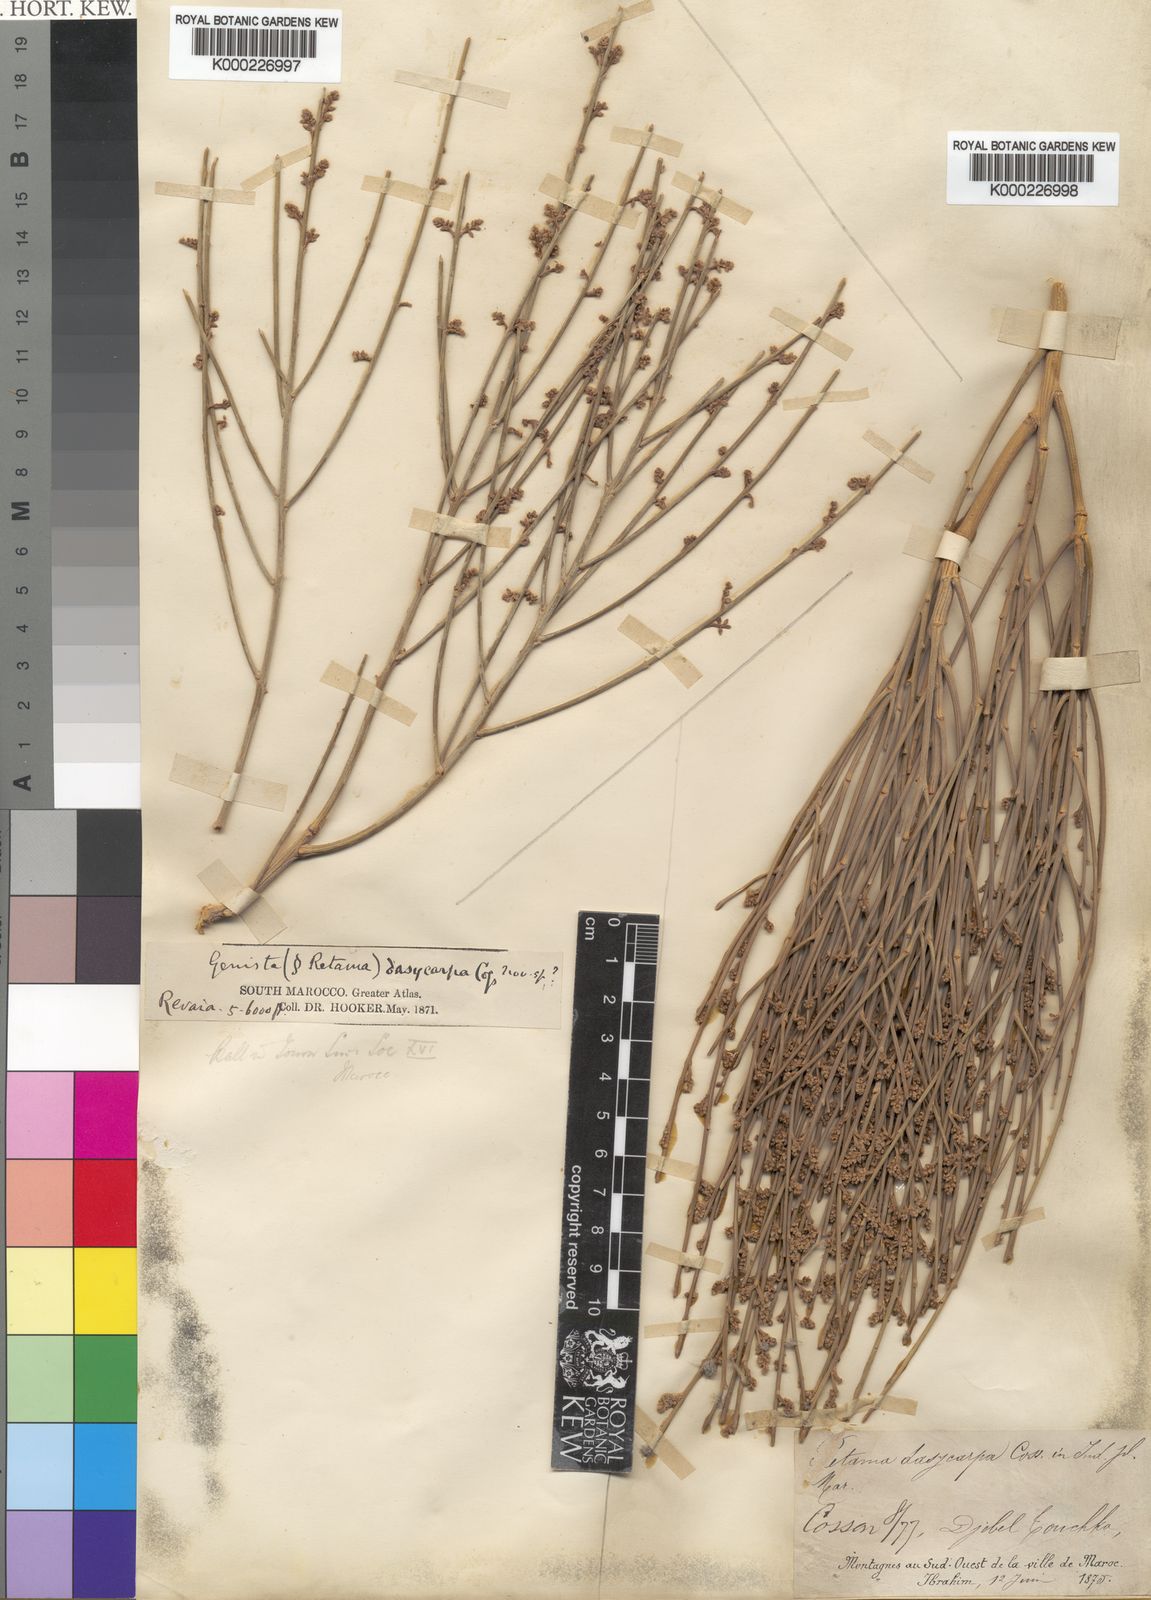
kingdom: Plantae
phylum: Tracheophyta
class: Magnoliopsida
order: Fabales
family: Fabaceae
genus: Retama
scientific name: Retama dasycarpa
